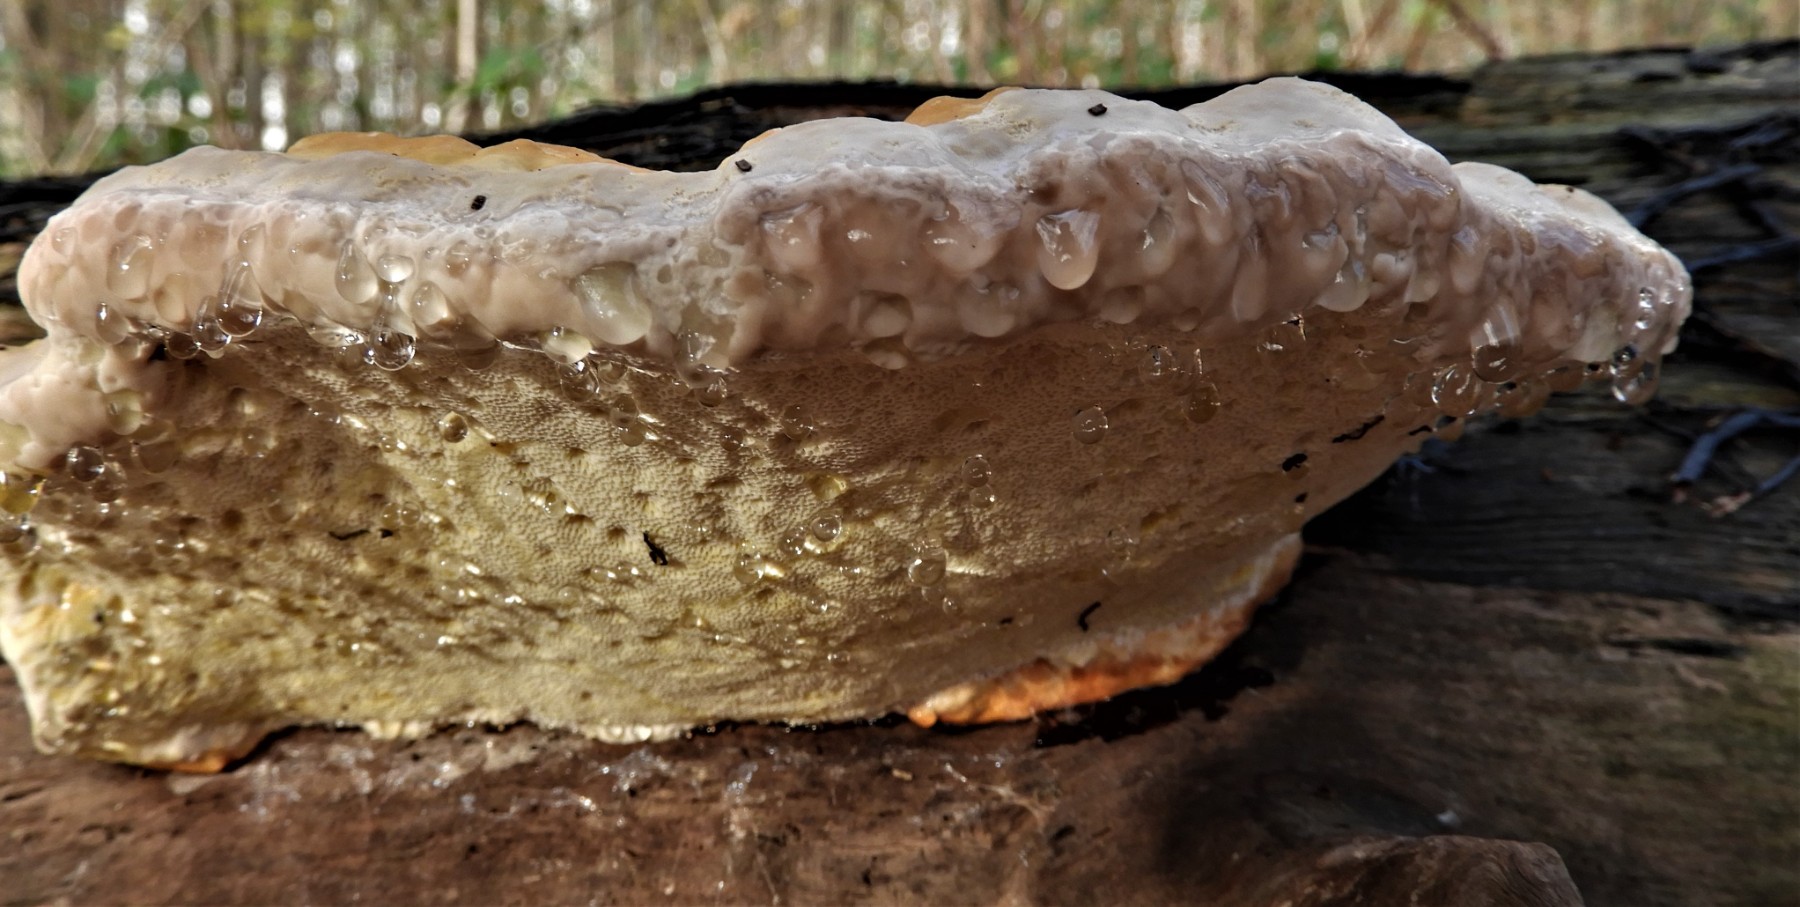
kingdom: Fungi
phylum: Basidiomycota
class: Agaricomycetes
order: Polyporales
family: Fomitopsidaceae
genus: Fomitopsis
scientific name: Fomitopsis pinicola
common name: randbæltet hovporesvamp
